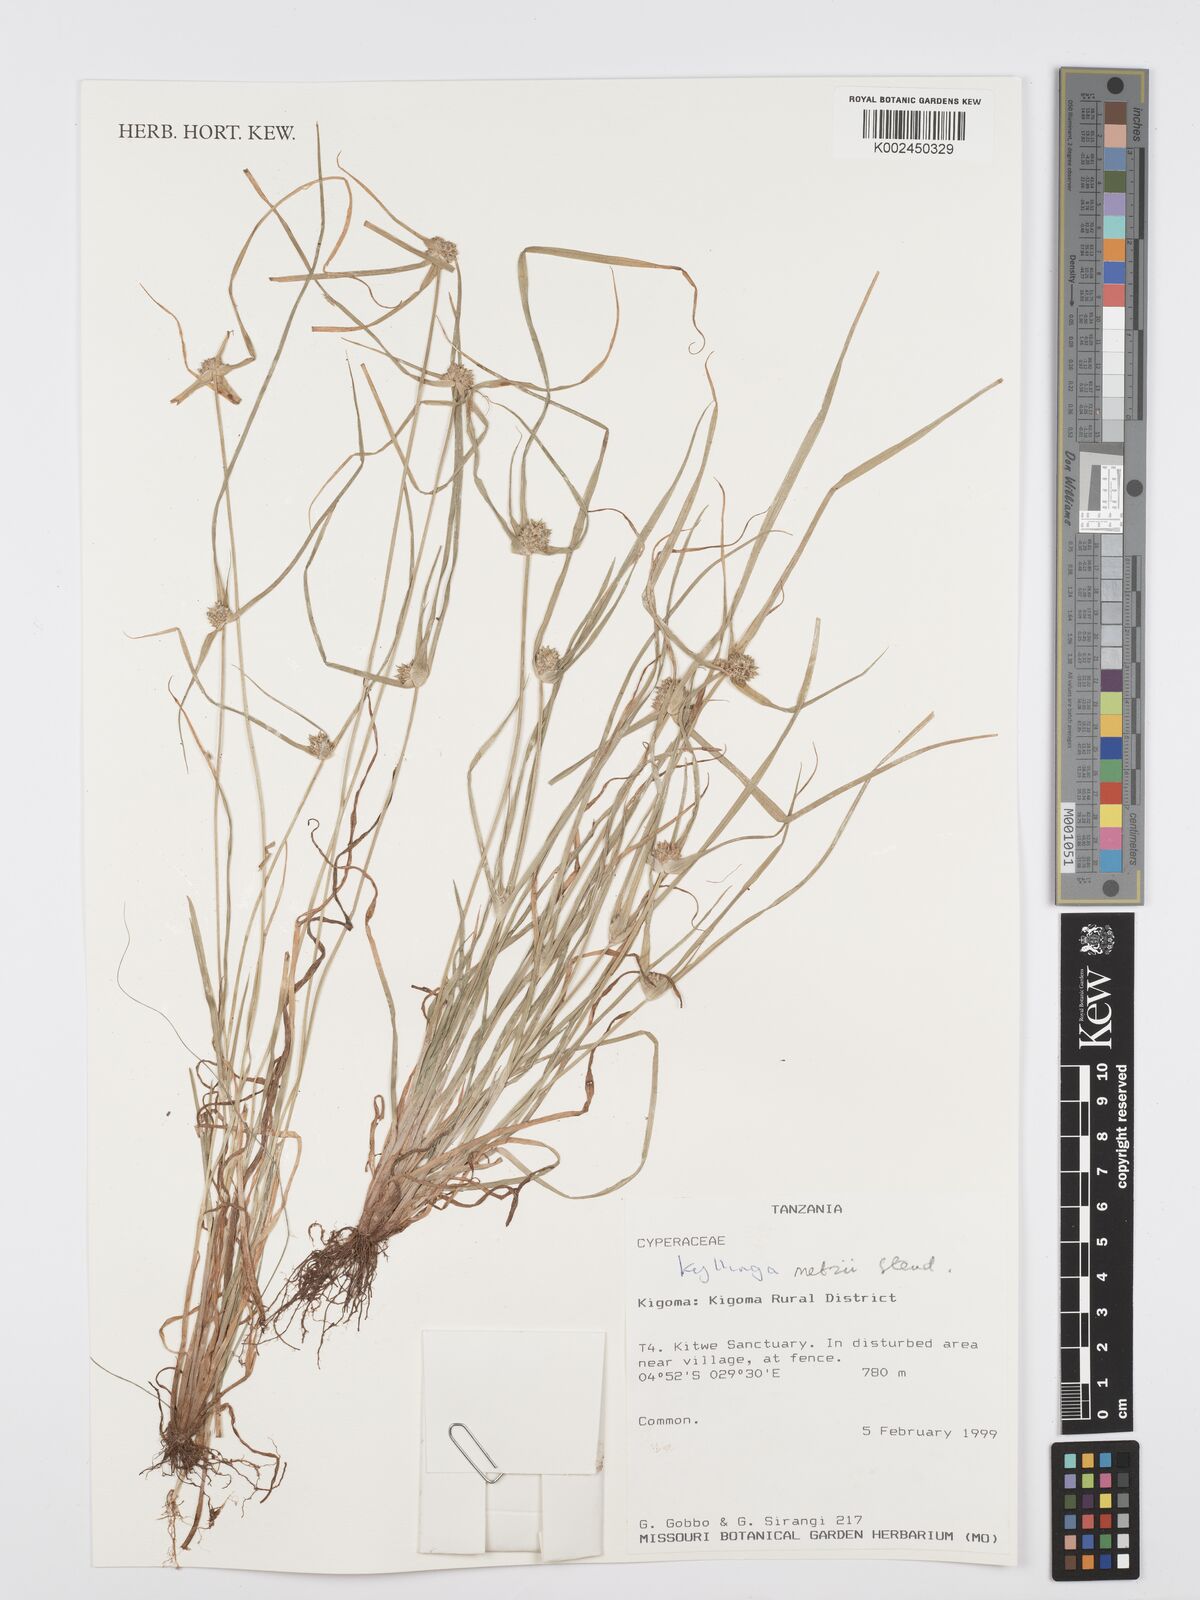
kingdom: Plantae
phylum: Tracheophyta
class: Liliopsida
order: Poales
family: Cyperaceae
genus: Cyperus
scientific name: Cyperus
